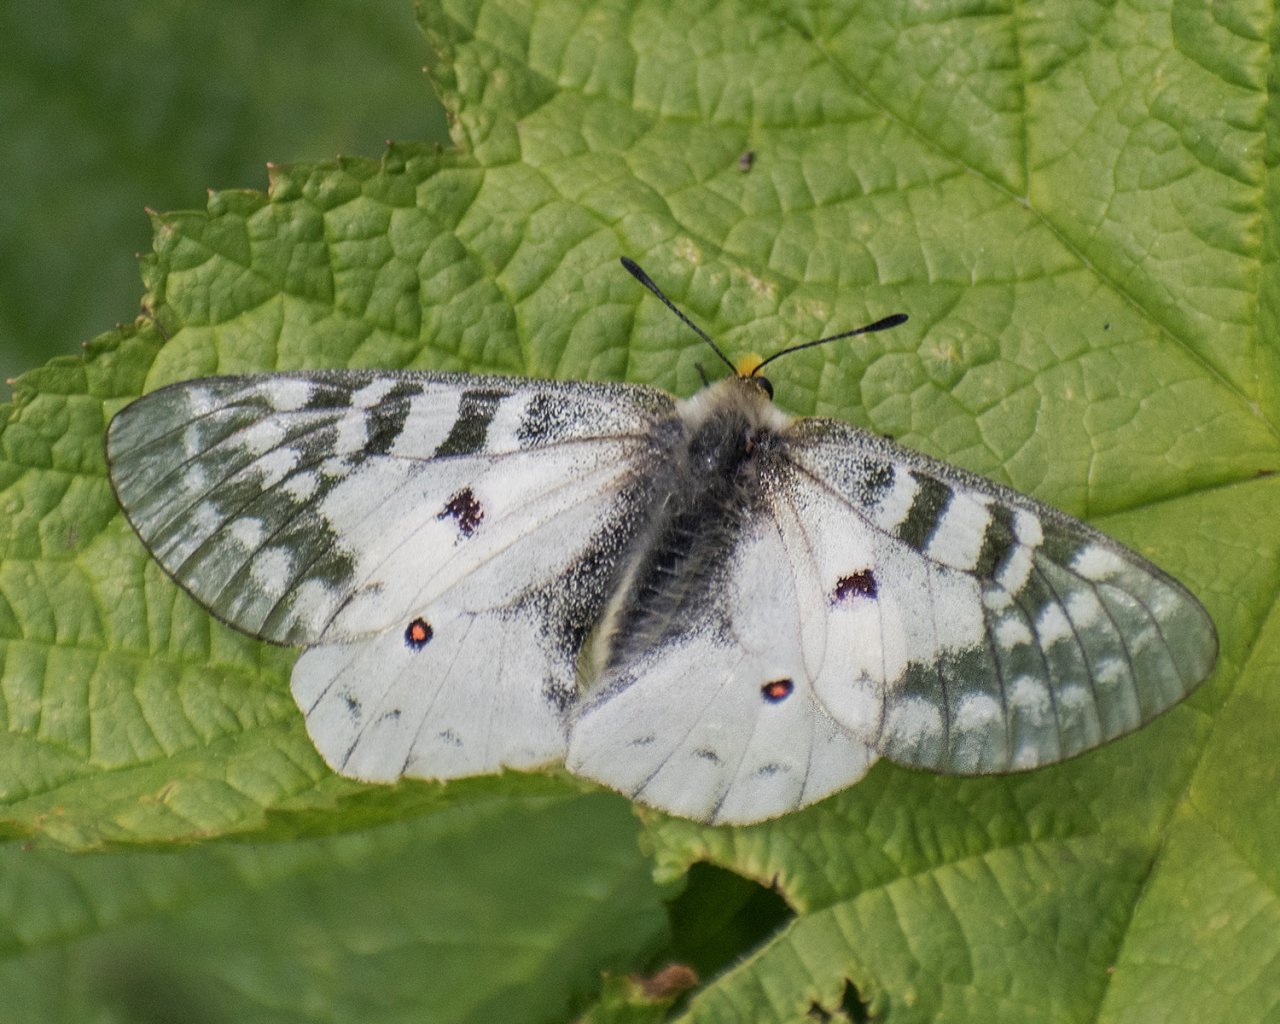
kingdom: Animalia
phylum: Arthropoda
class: Insecta
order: Lepidoptera
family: Papilionidae
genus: Parnassius
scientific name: Parnassius clodius
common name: Clodius Parnassian
